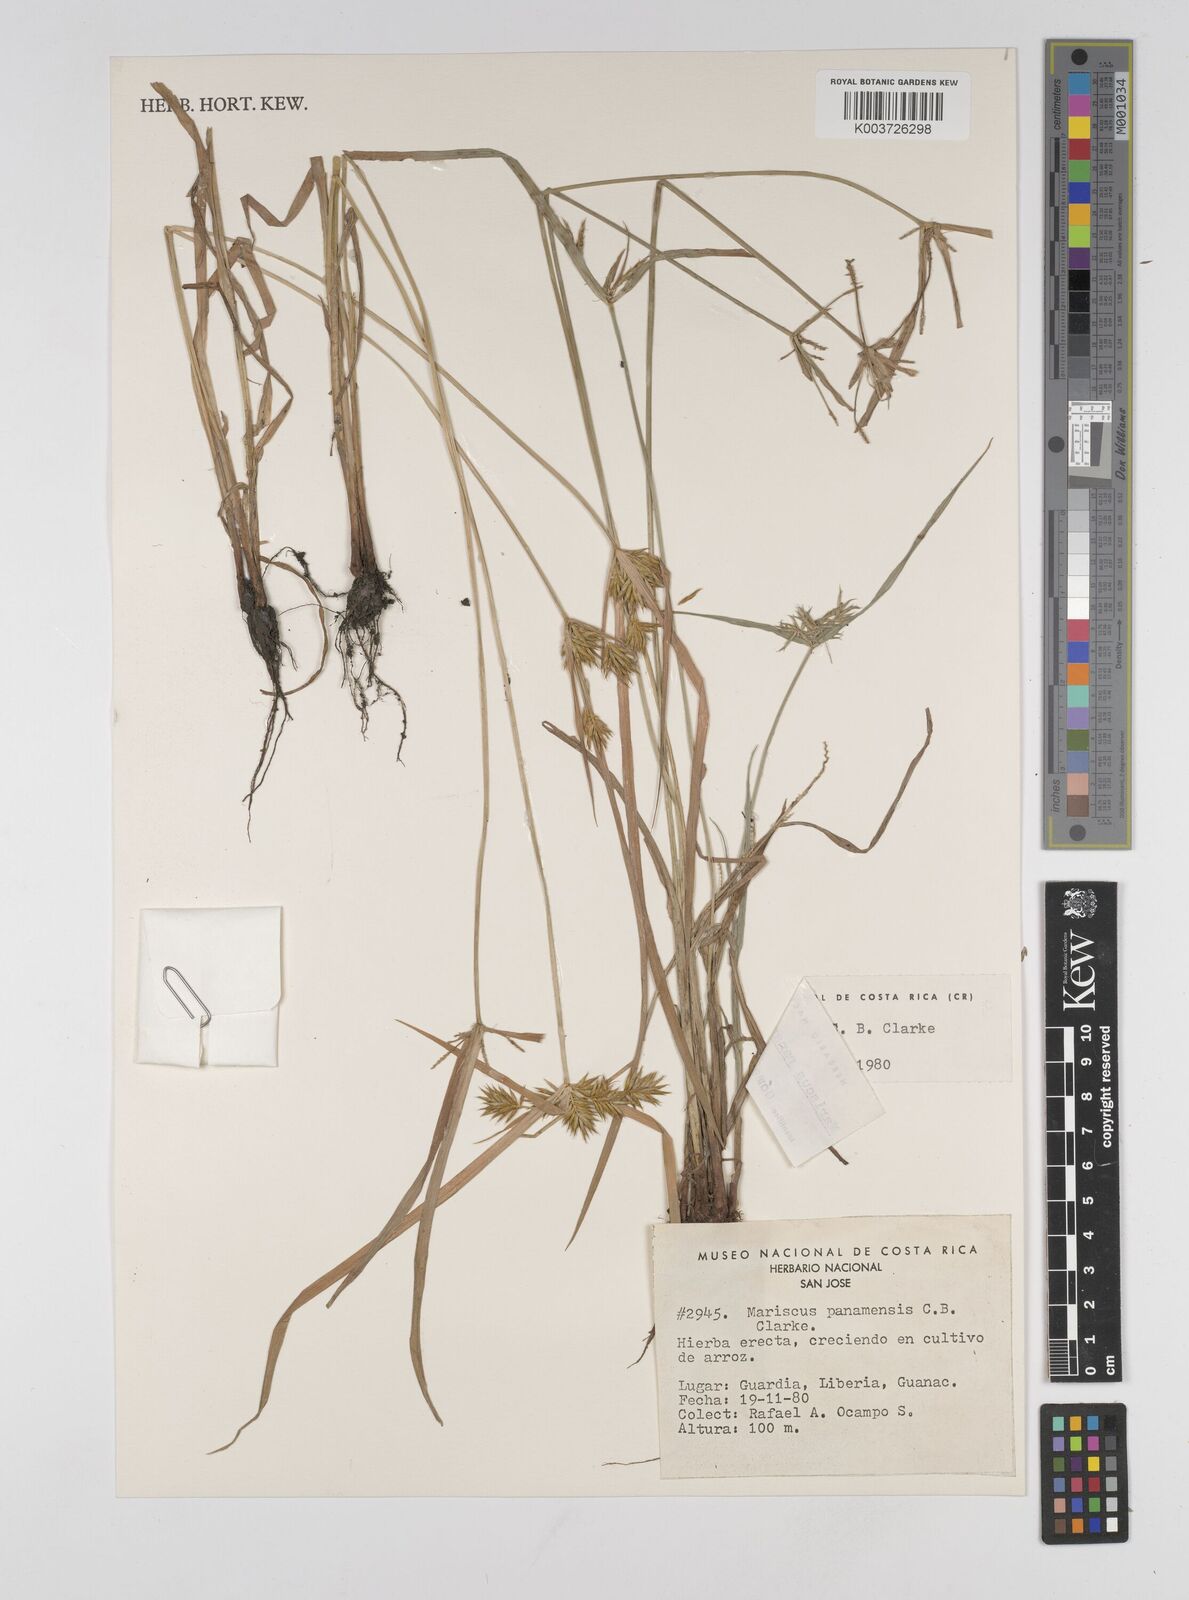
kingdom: Plantae
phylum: Tracheophyta
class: Liliopsida
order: Poales
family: Cyperaceae
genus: Cyperus
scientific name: Cyperus panamensis
